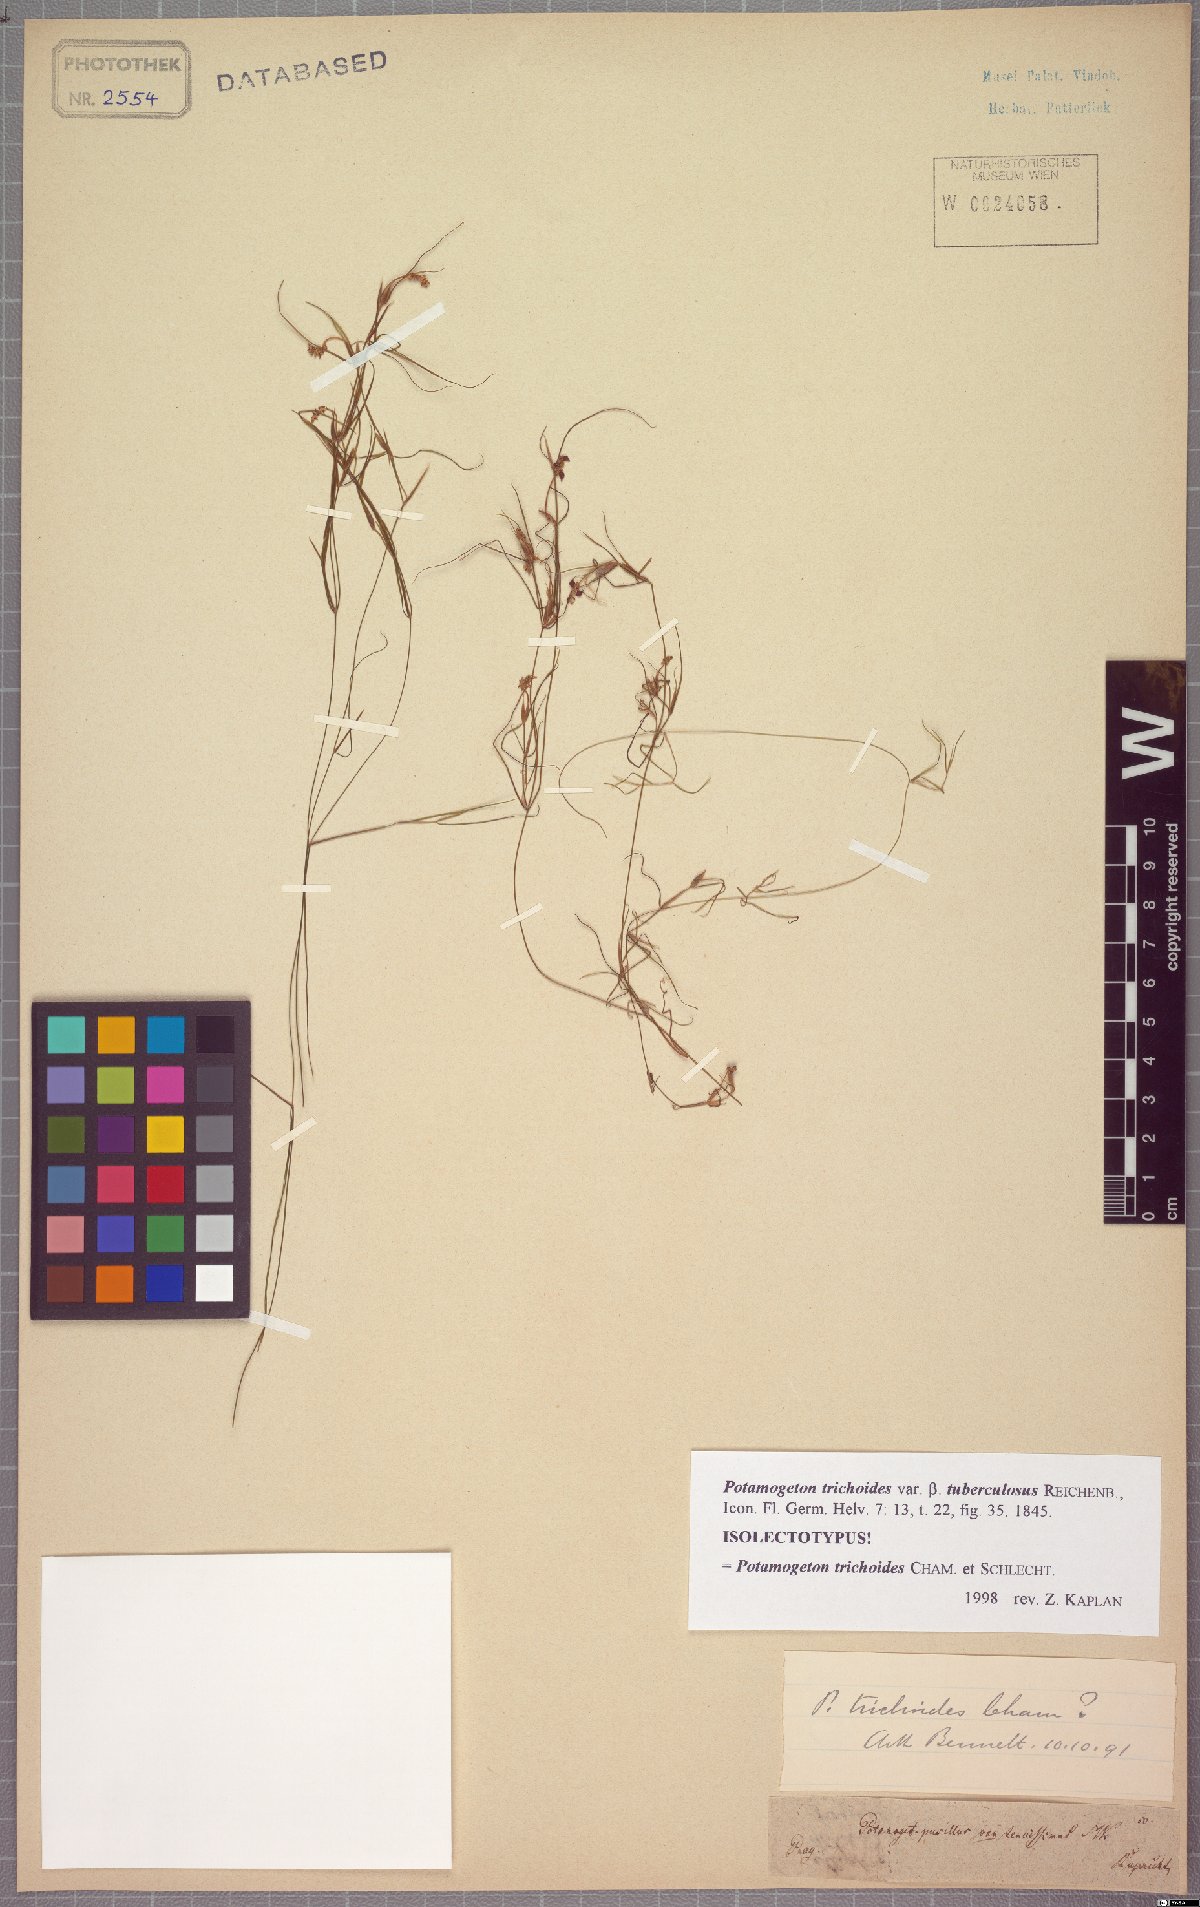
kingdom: Plantae
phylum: Tracheophyta
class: Liliopsida
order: Alismatales
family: Potamogetonaceae
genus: Potamogeton
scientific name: Potamogeton trichoides
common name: Hairlike pondweed
